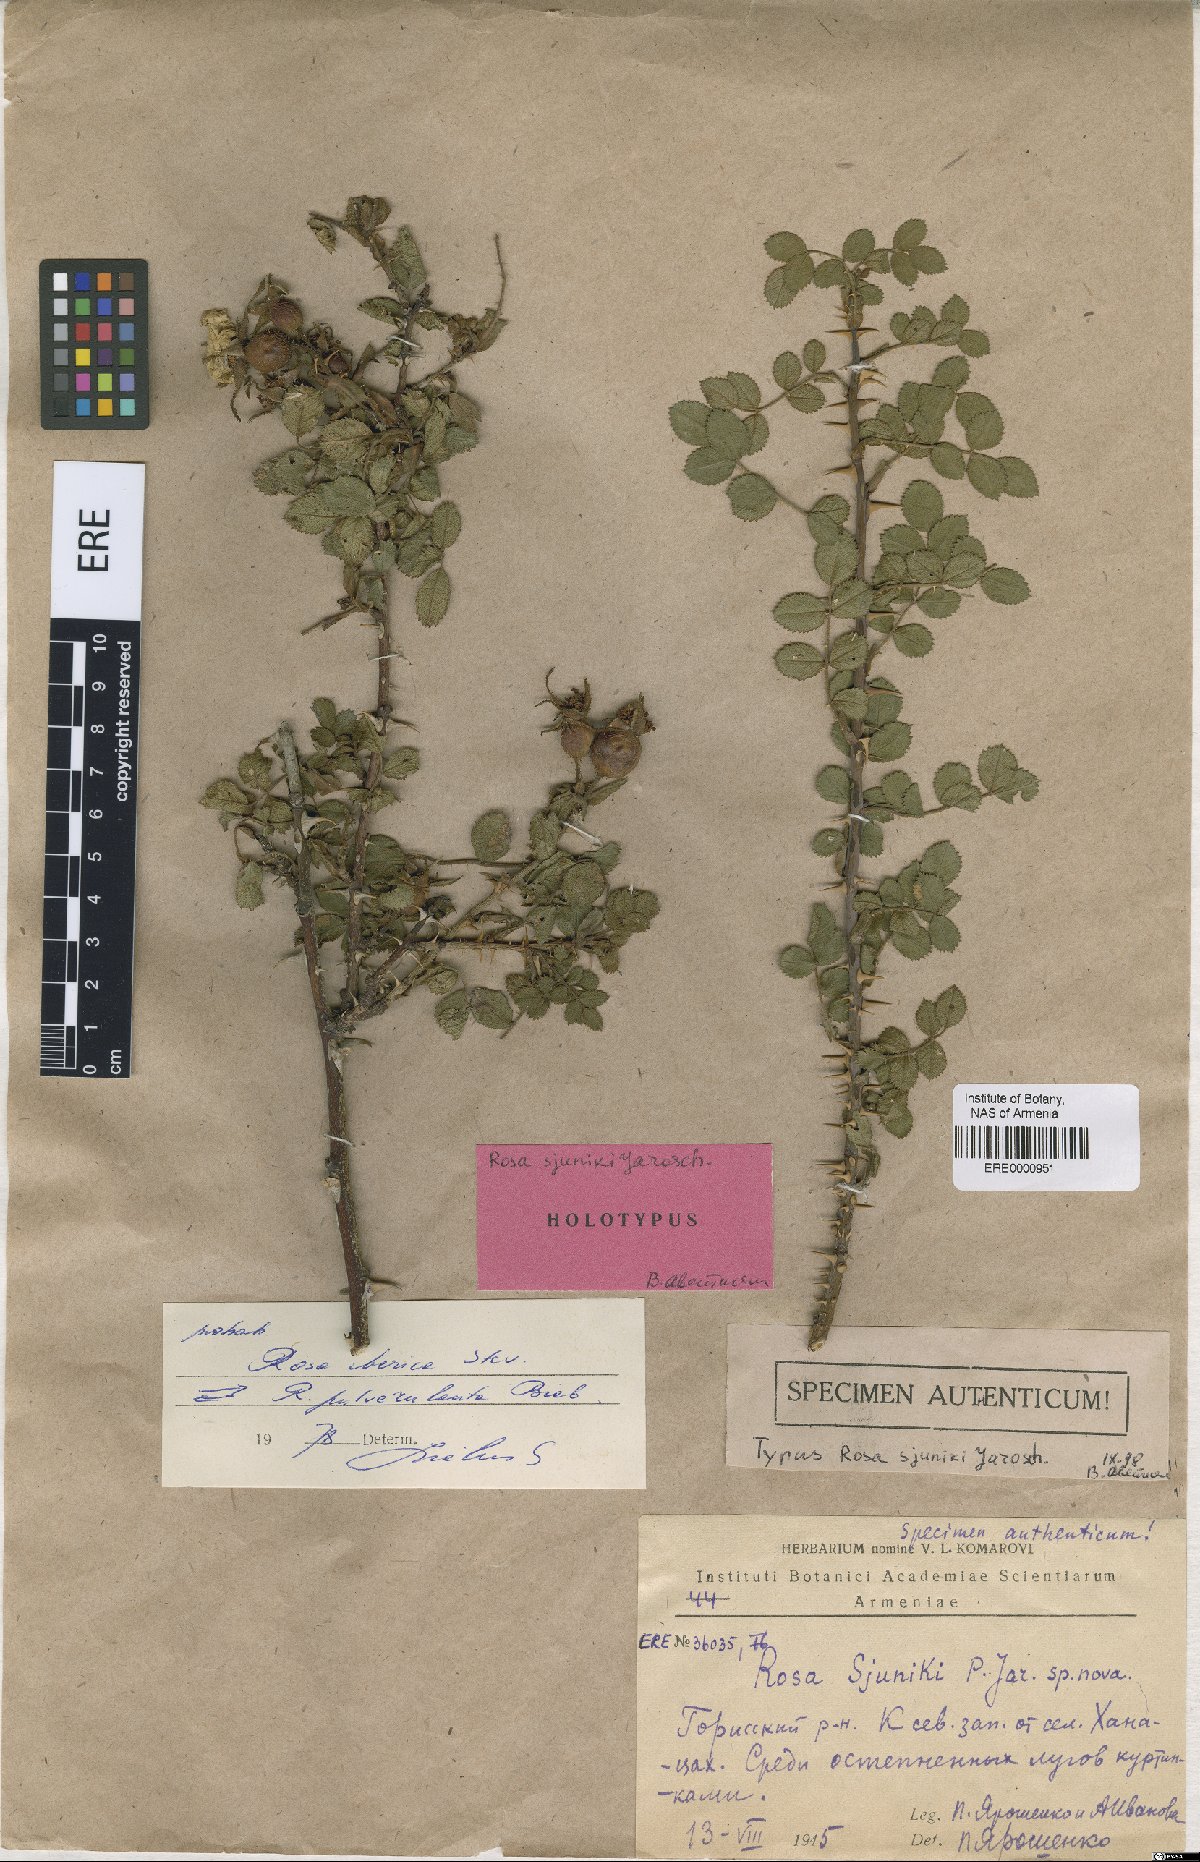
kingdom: Plantae
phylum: Tracheophyta
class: Magnoliopsida
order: Rosales
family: Rosaceae
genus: Rosa
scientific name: Rosa pulverulenta
